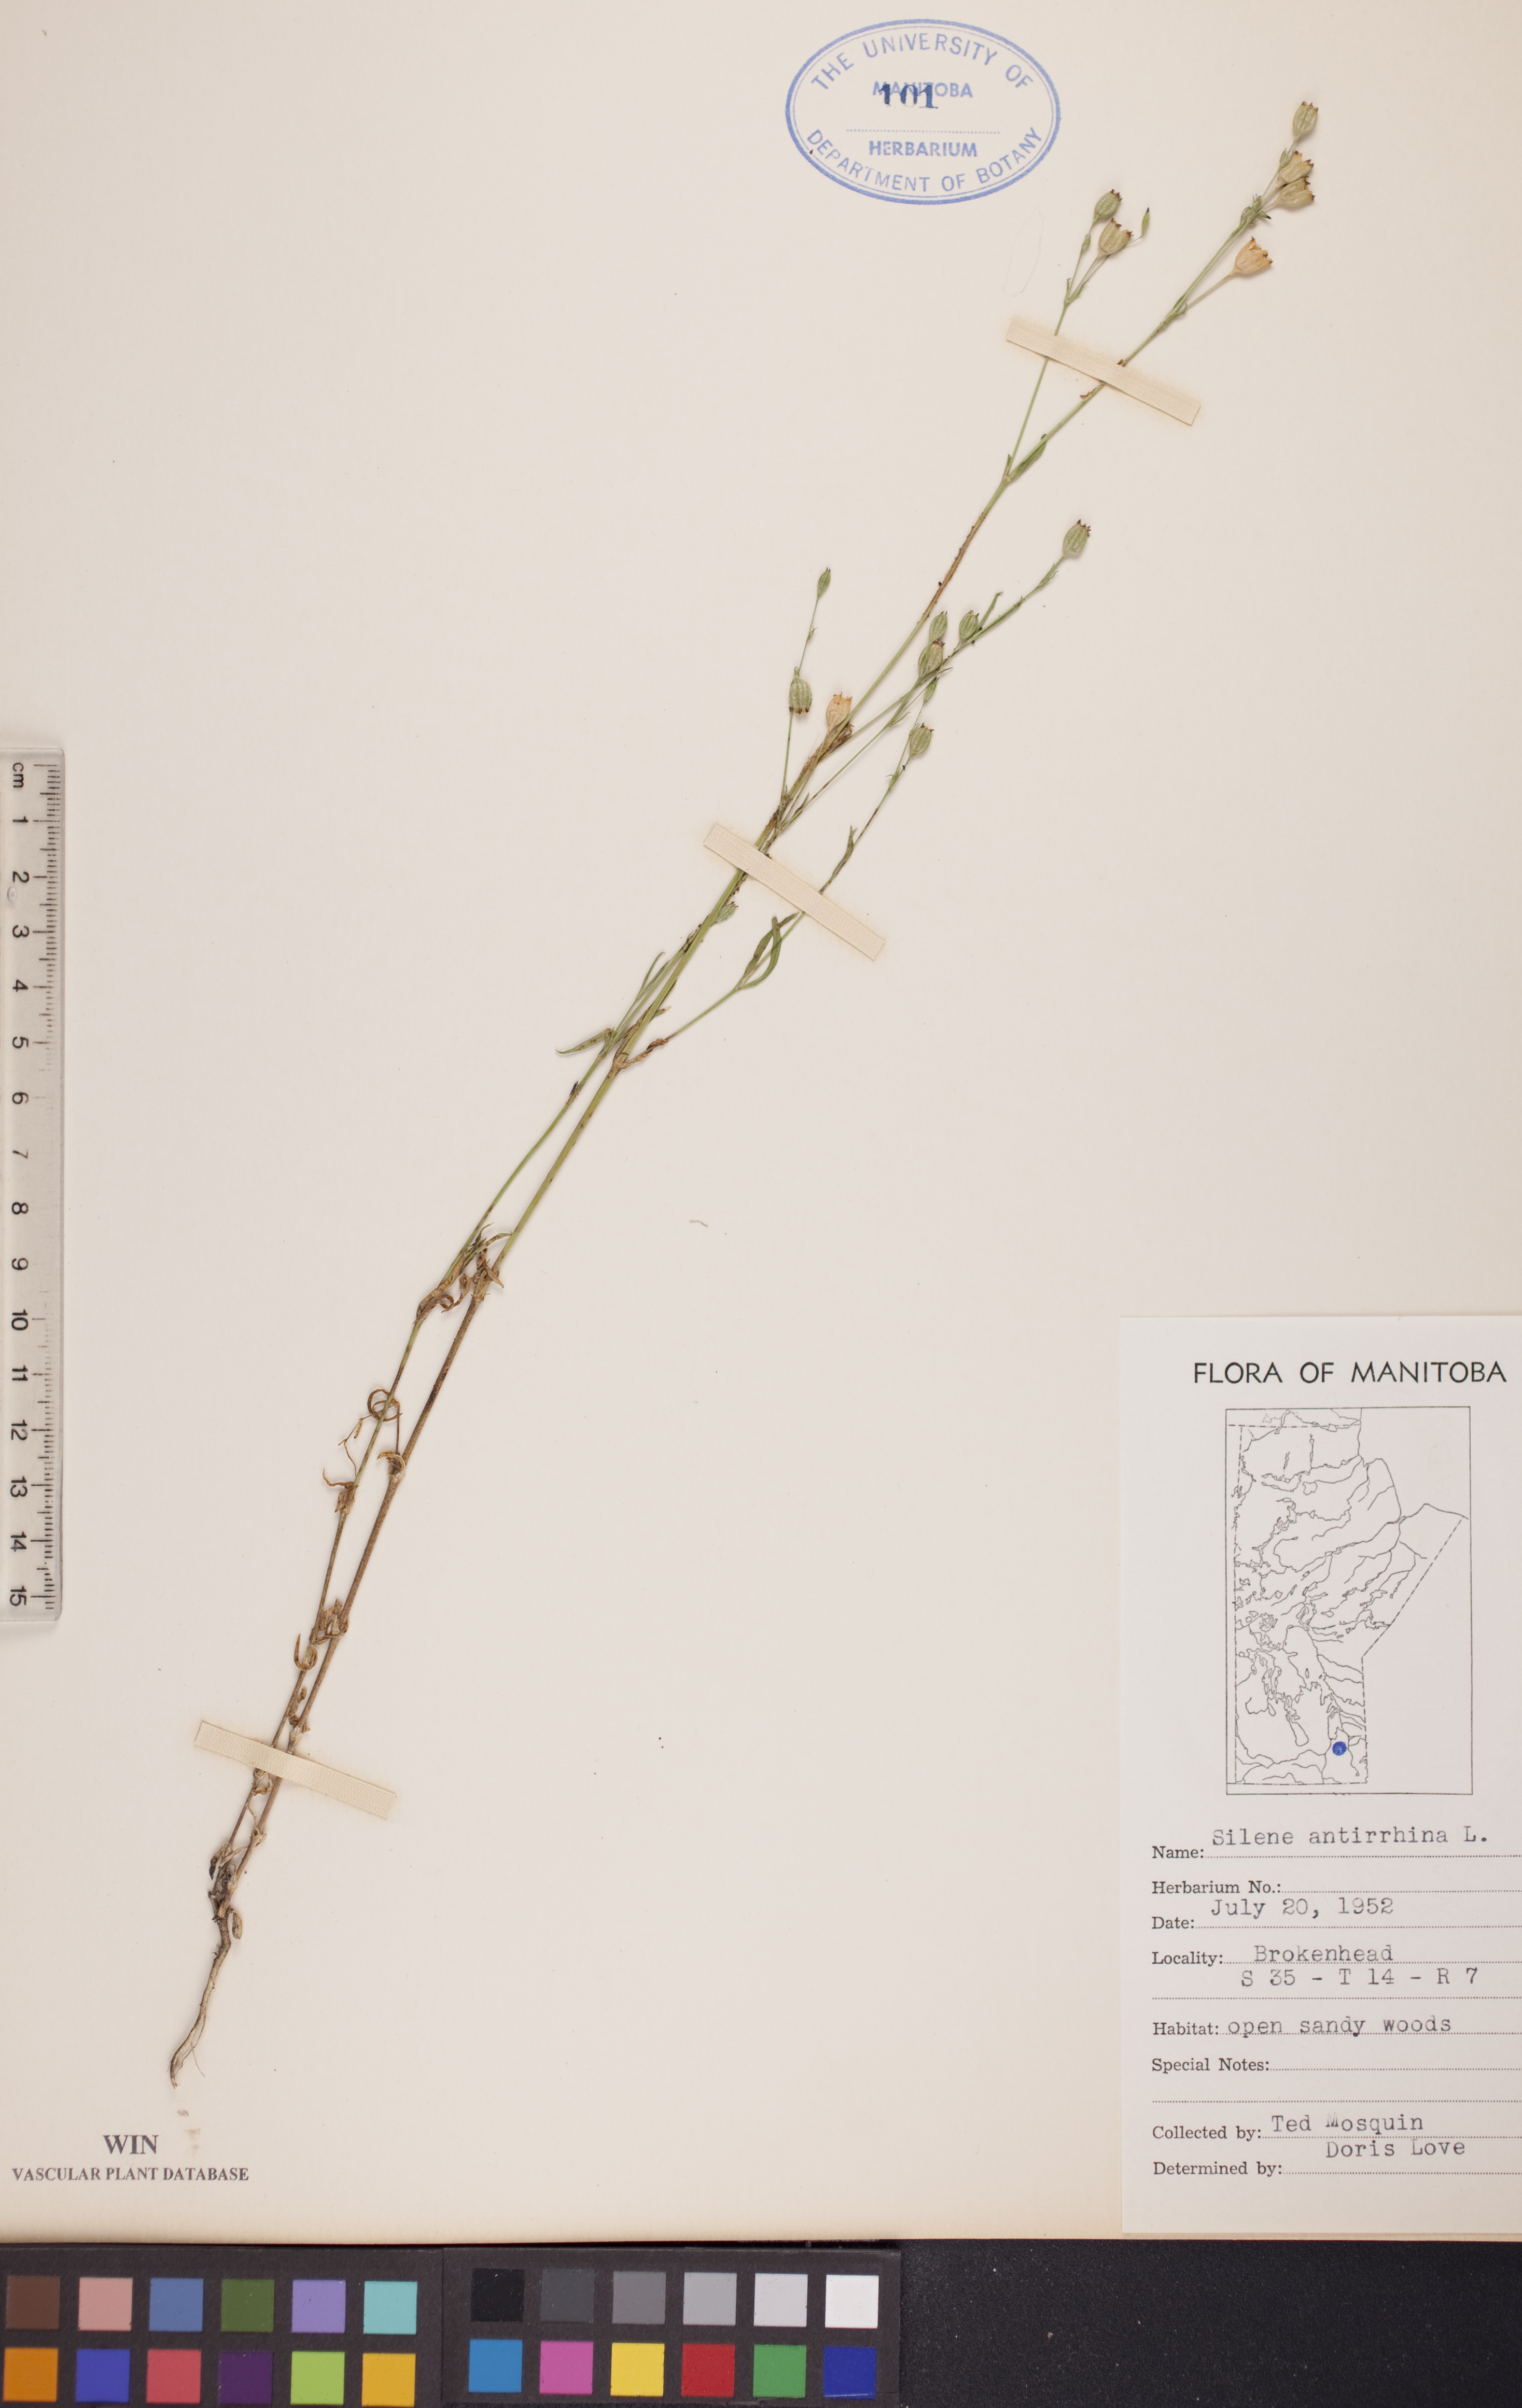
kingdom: Plantae
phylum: Tracheophyta
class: Magnoliopsida
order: Caryophyllales
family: Caryophyllaceae
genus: Silene
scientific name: Silene antirrhina
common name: Sleepy catchfly
